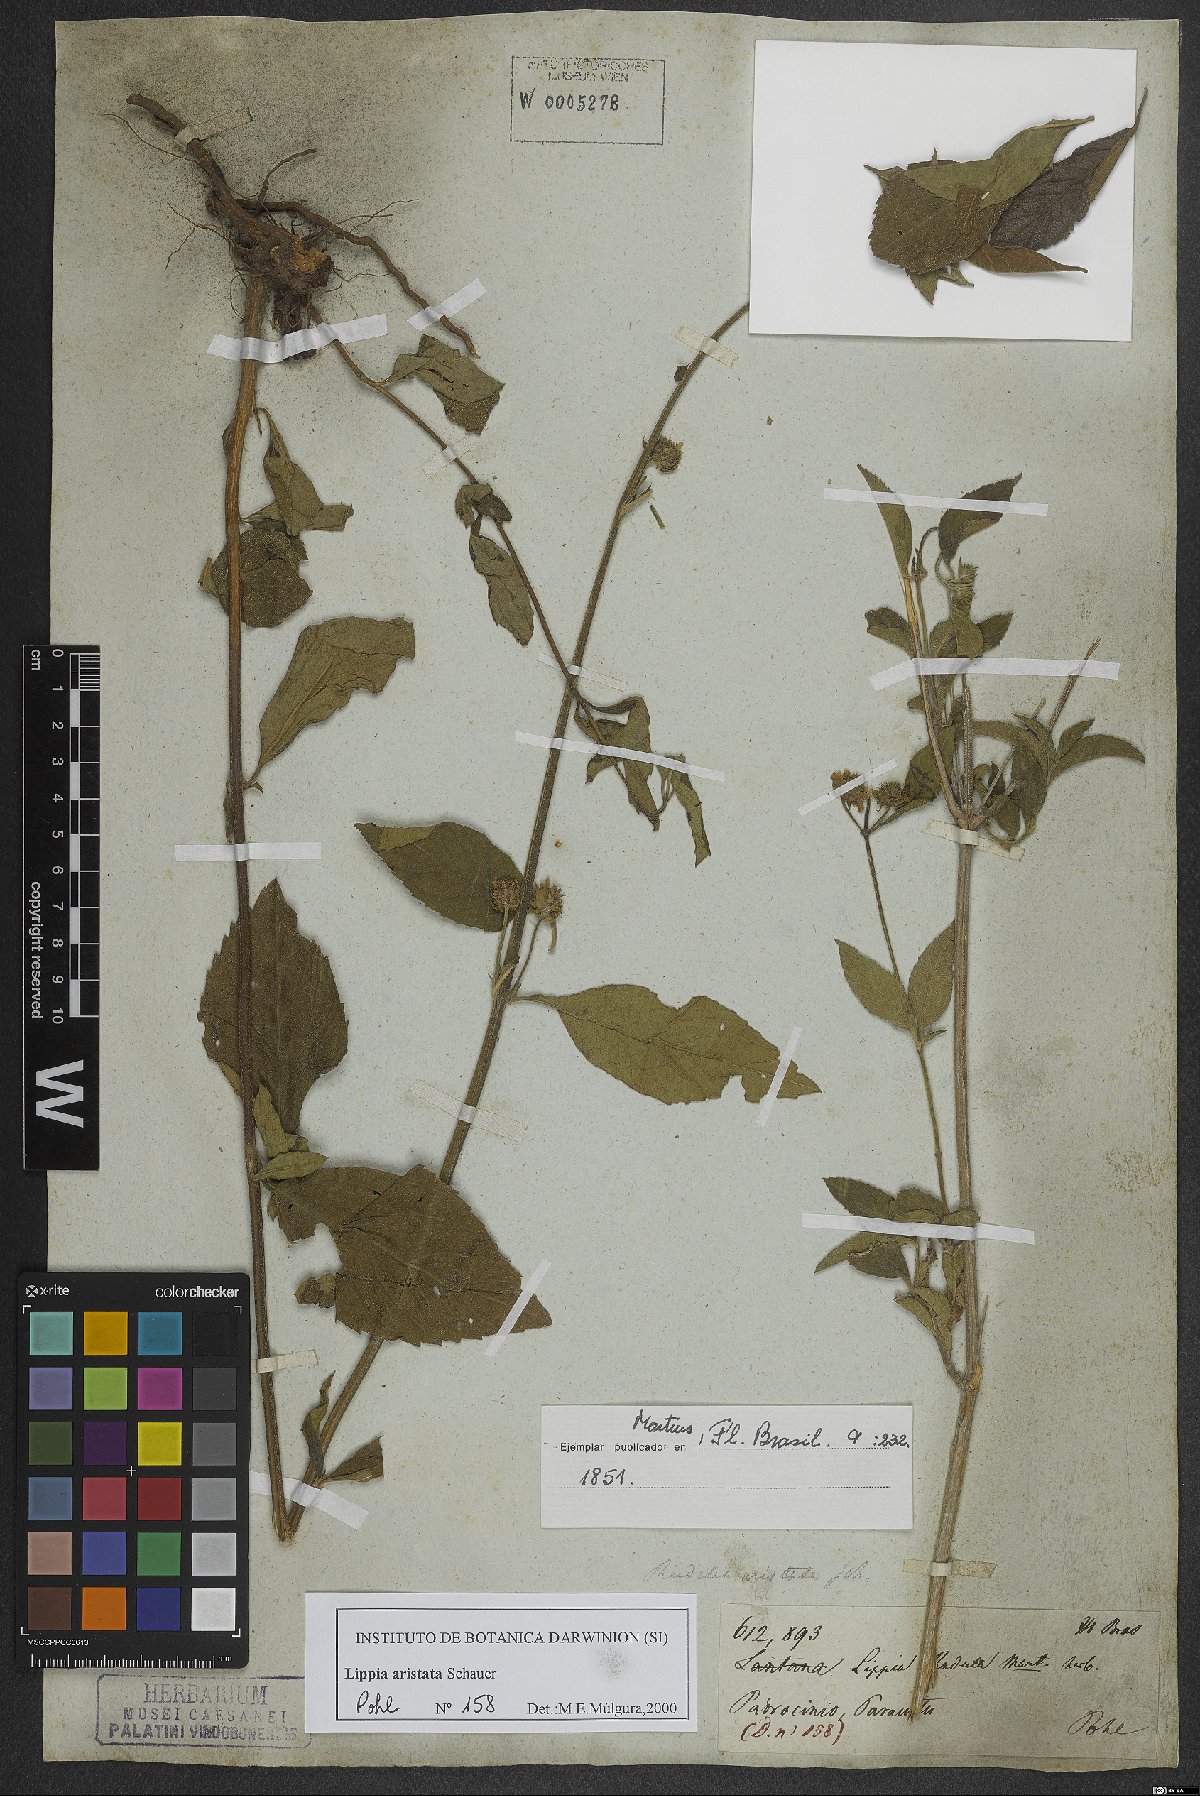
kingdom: Plantae
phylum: Tracheophyta
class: Magnoliopsida
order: Lamiales
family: Verbenaceae
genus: Lippia
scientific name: Lippia aristata
